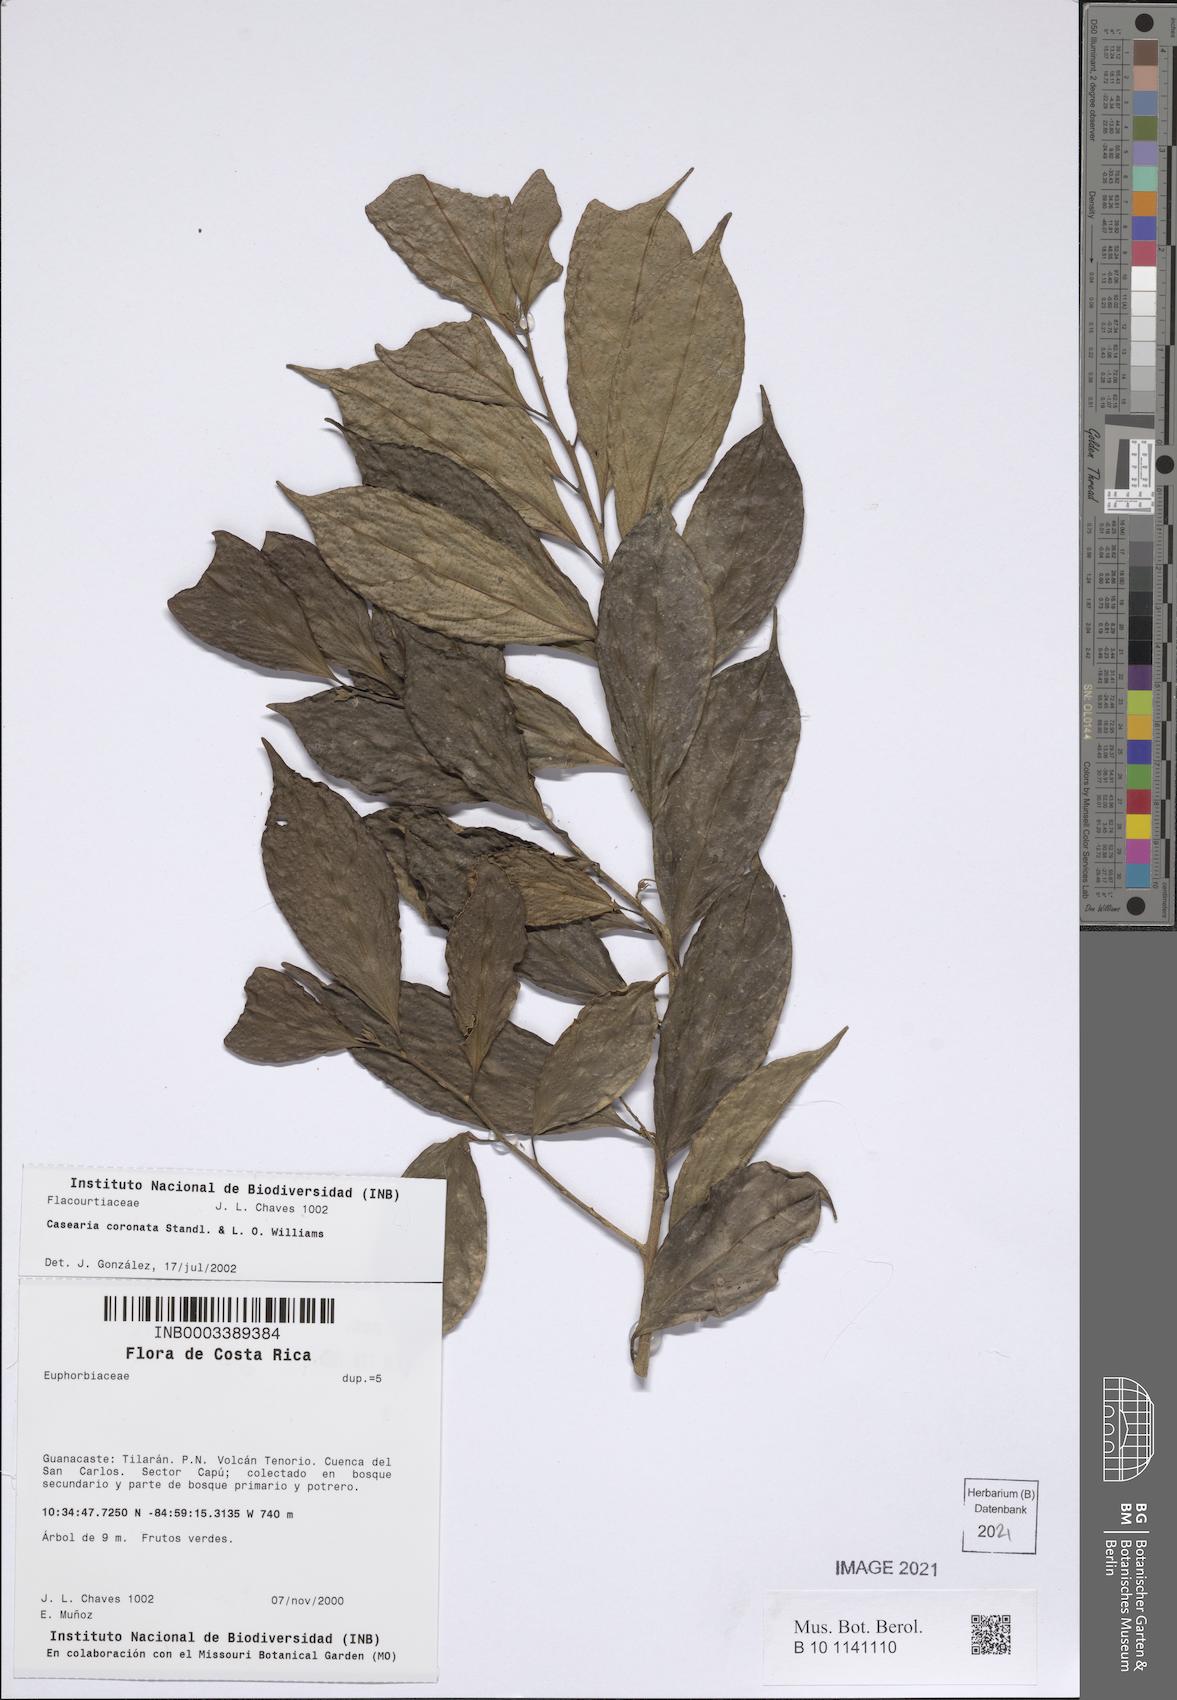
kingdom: Plantae
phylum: Tracheophyta
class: Magnoliopsida
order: Malpighiales
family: Salicaceae
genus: Casearia
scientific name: Casearia coronata
